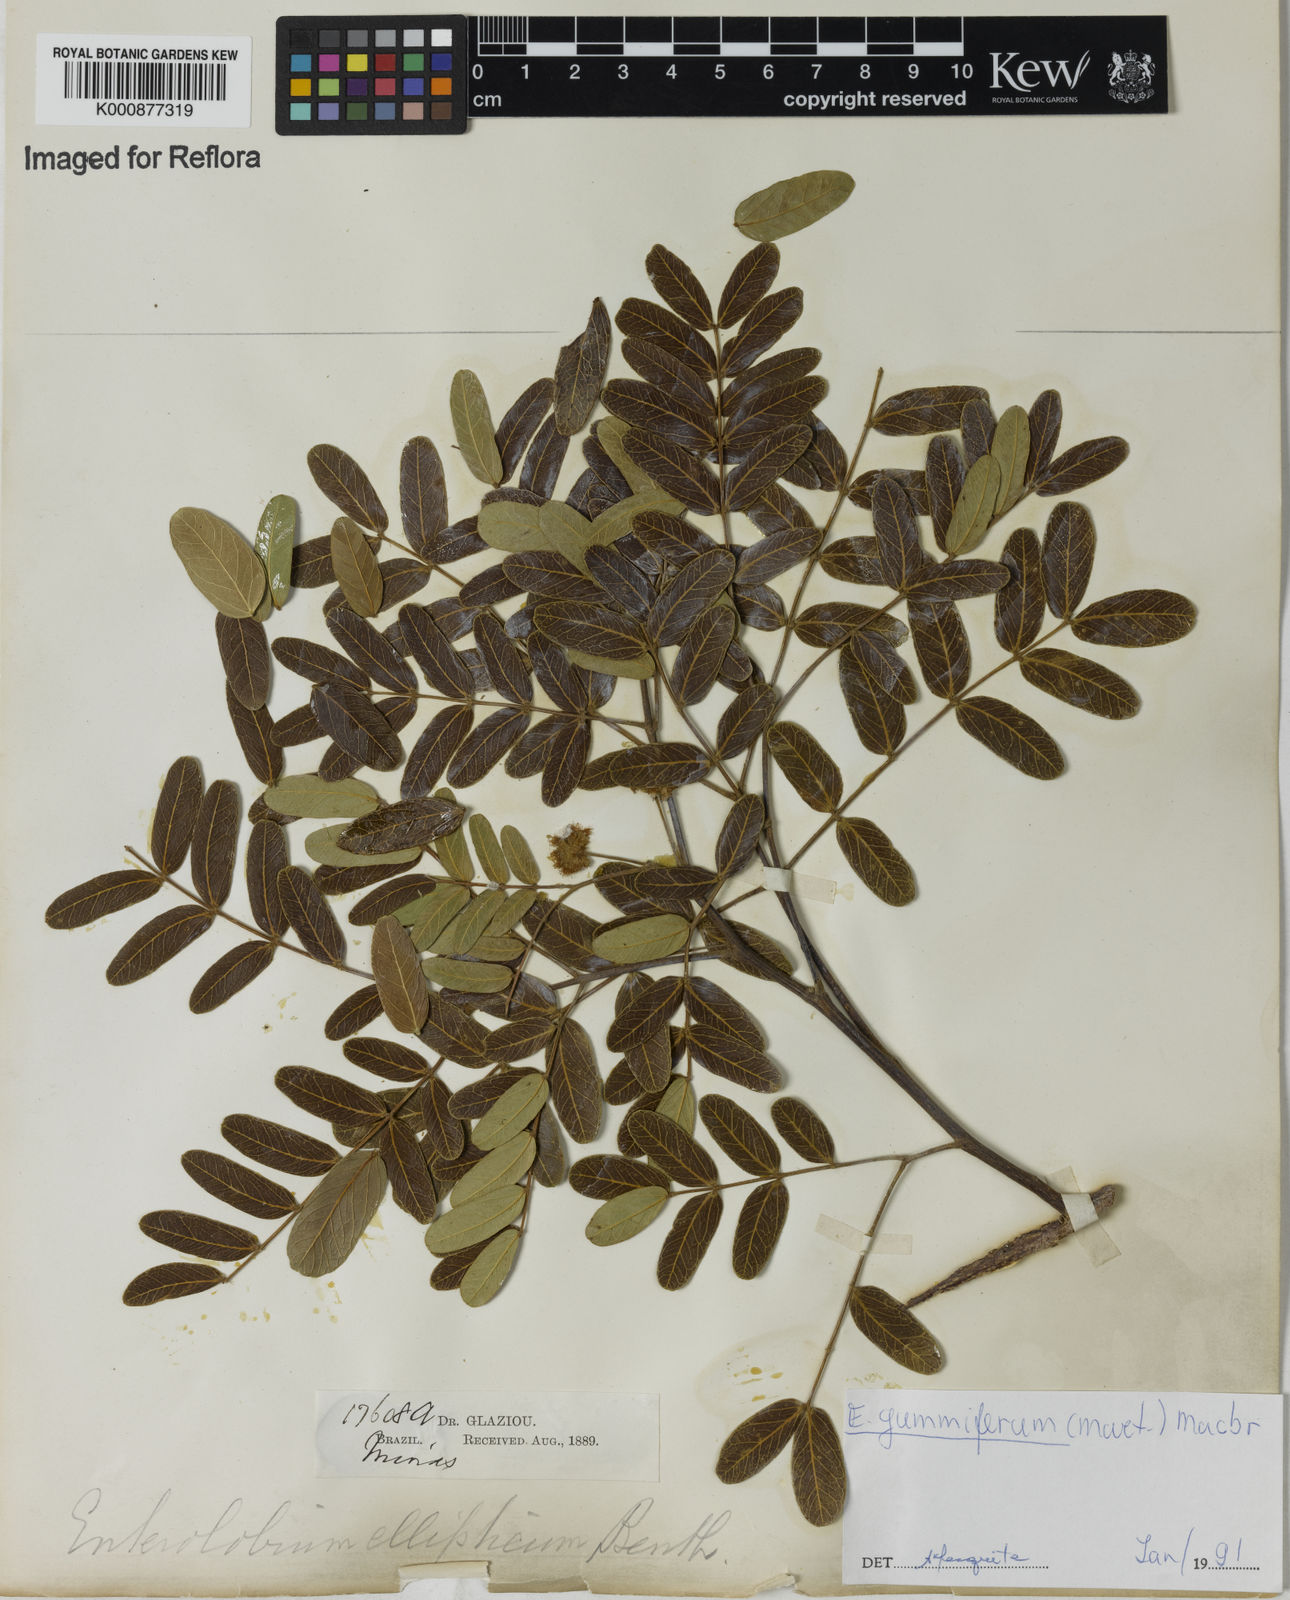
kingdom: Plantae
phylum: Tracheophyta
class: Magnoliopsida
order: Fabales
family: Fabaceae
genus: Enterolobium
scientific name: Enterolobium gummiferum
